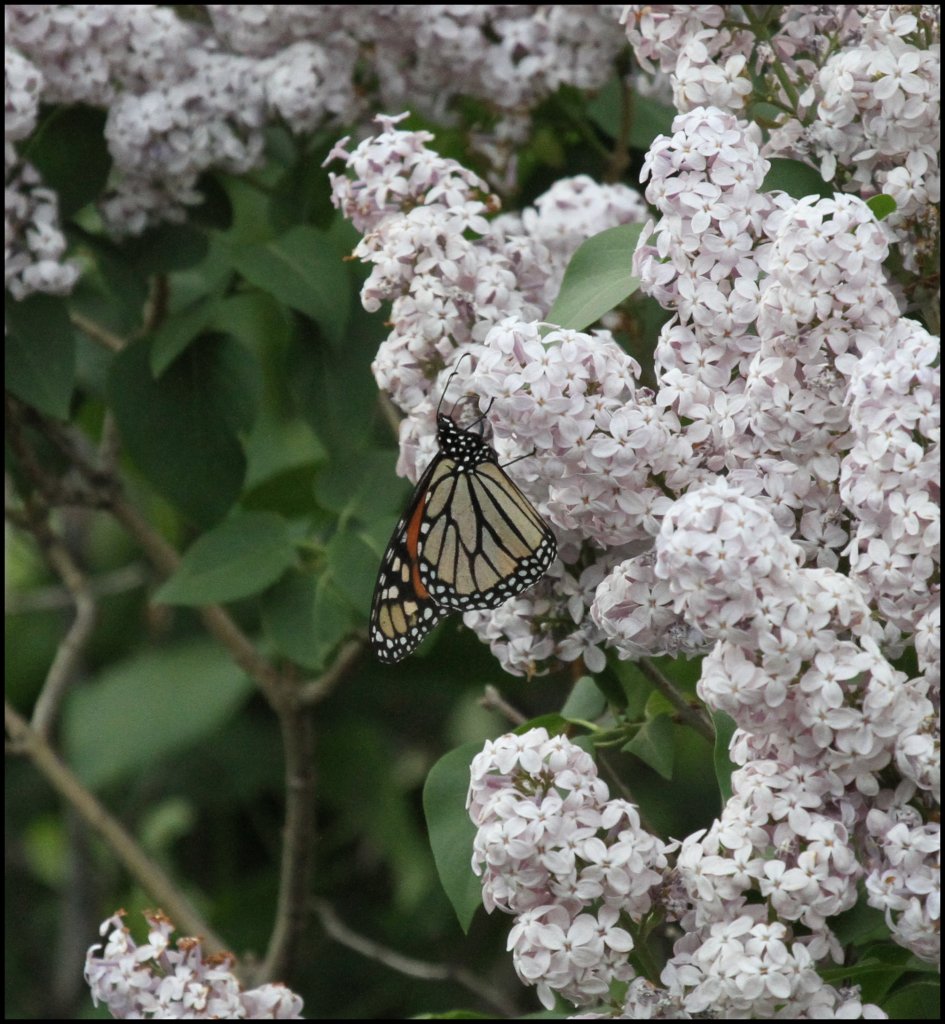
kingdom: Animalia
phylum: Arthropoda
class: Insecta
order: Lepidoptera
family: Nymphalidae
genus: Danaus
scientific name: Danaus plexippus
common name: Monarch
